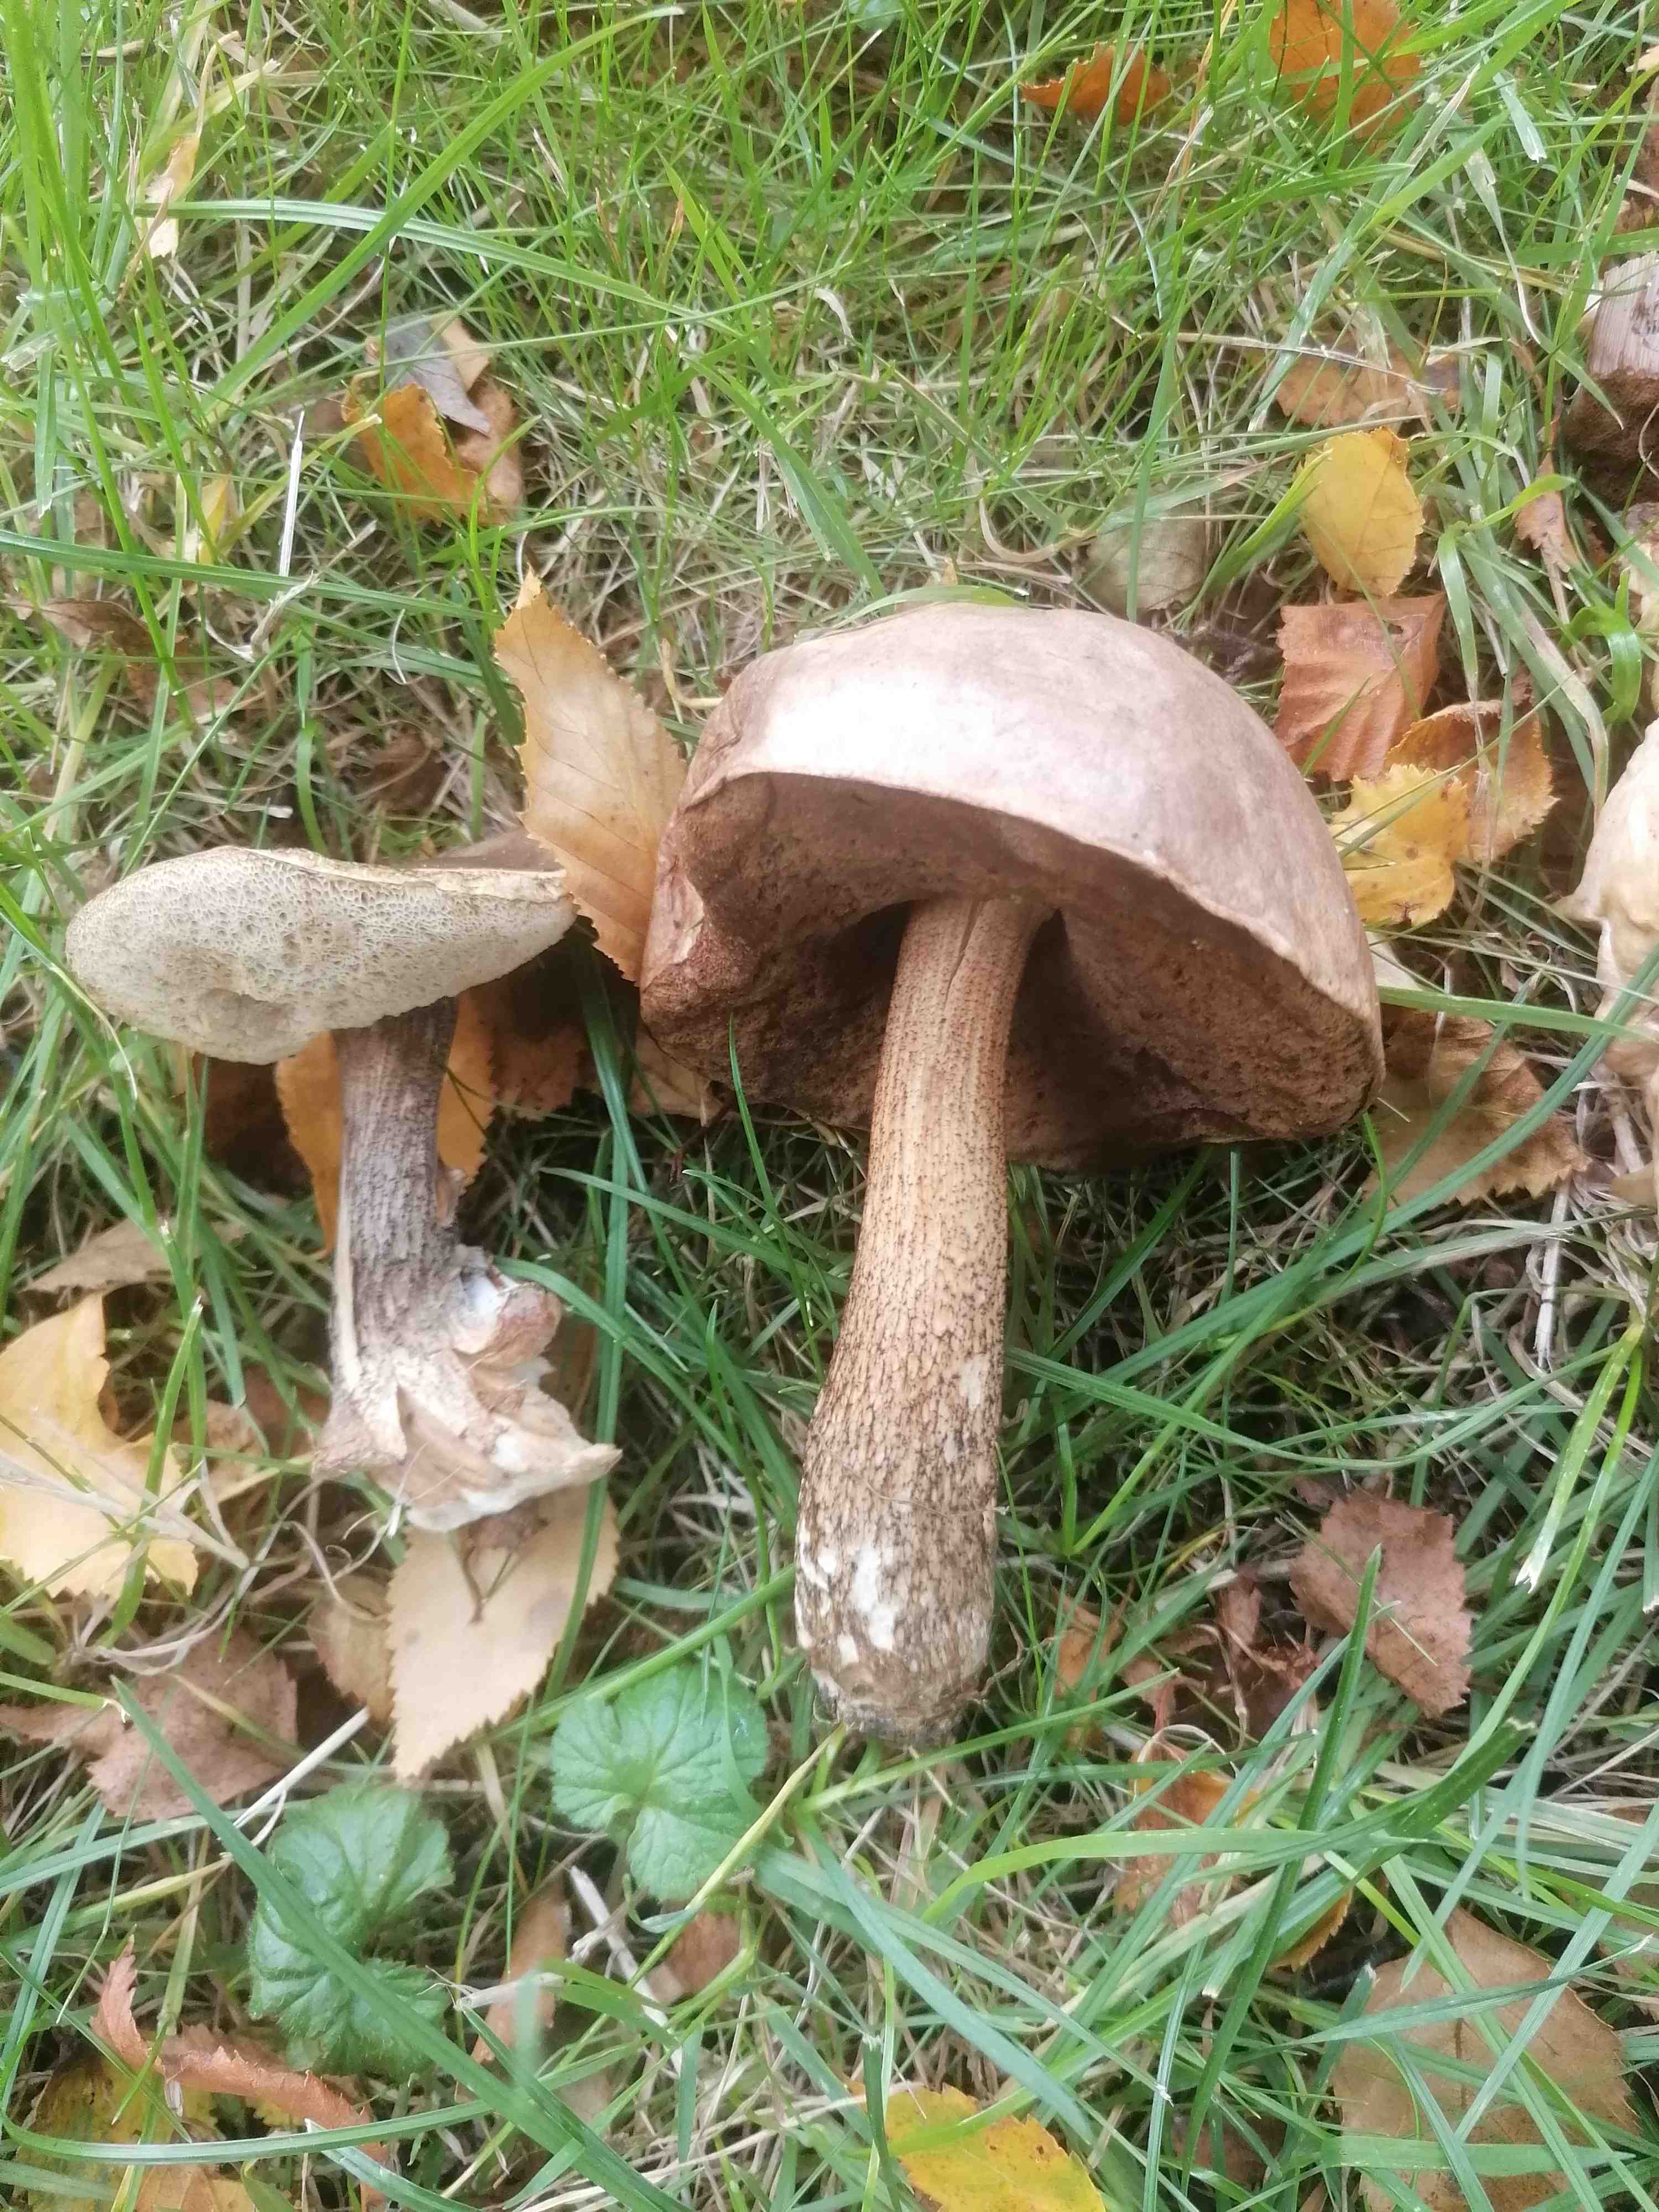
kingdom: Fungi
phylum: Basidiomycota
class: Agaricomycetes
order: Boletales
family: Boletaceae
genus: Leccinum
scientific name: Leccinum
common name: skælrørhat
